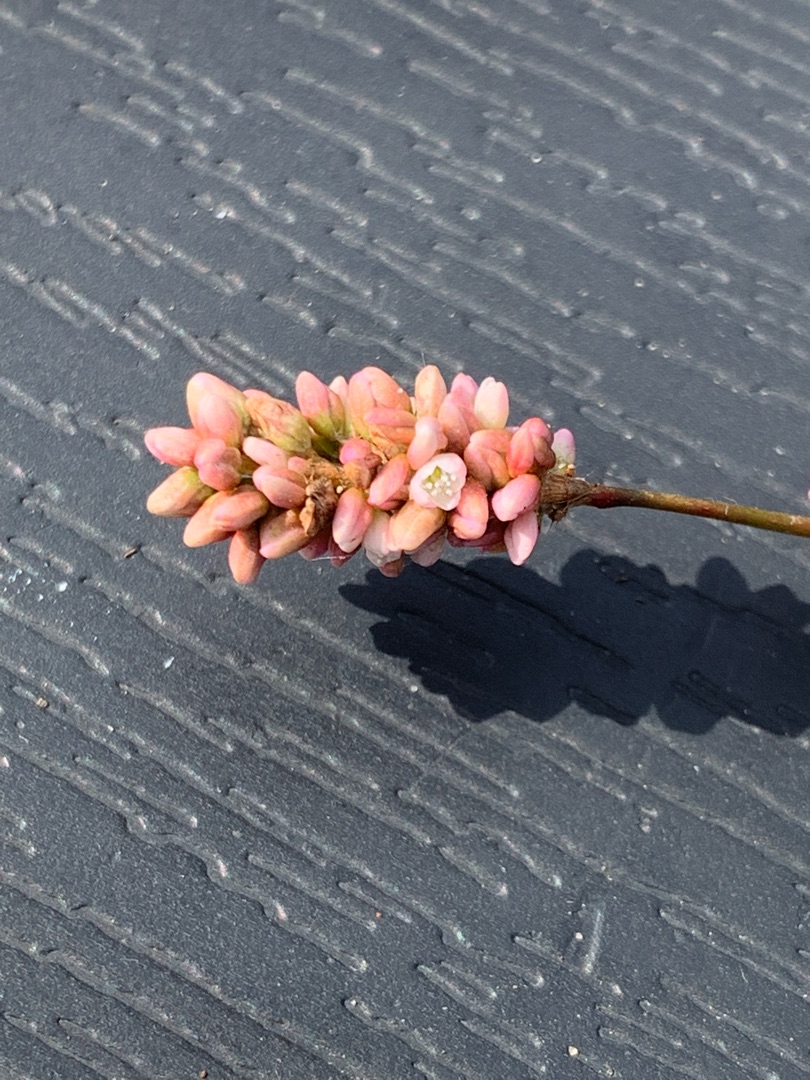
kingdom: Plantae
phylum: Tracheophyta
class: Magnoliopsida
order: Caryophyllales
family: Polygonaceae
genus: Persicaria
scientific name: Persicaria maculosa
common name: Fersken-pileurt
